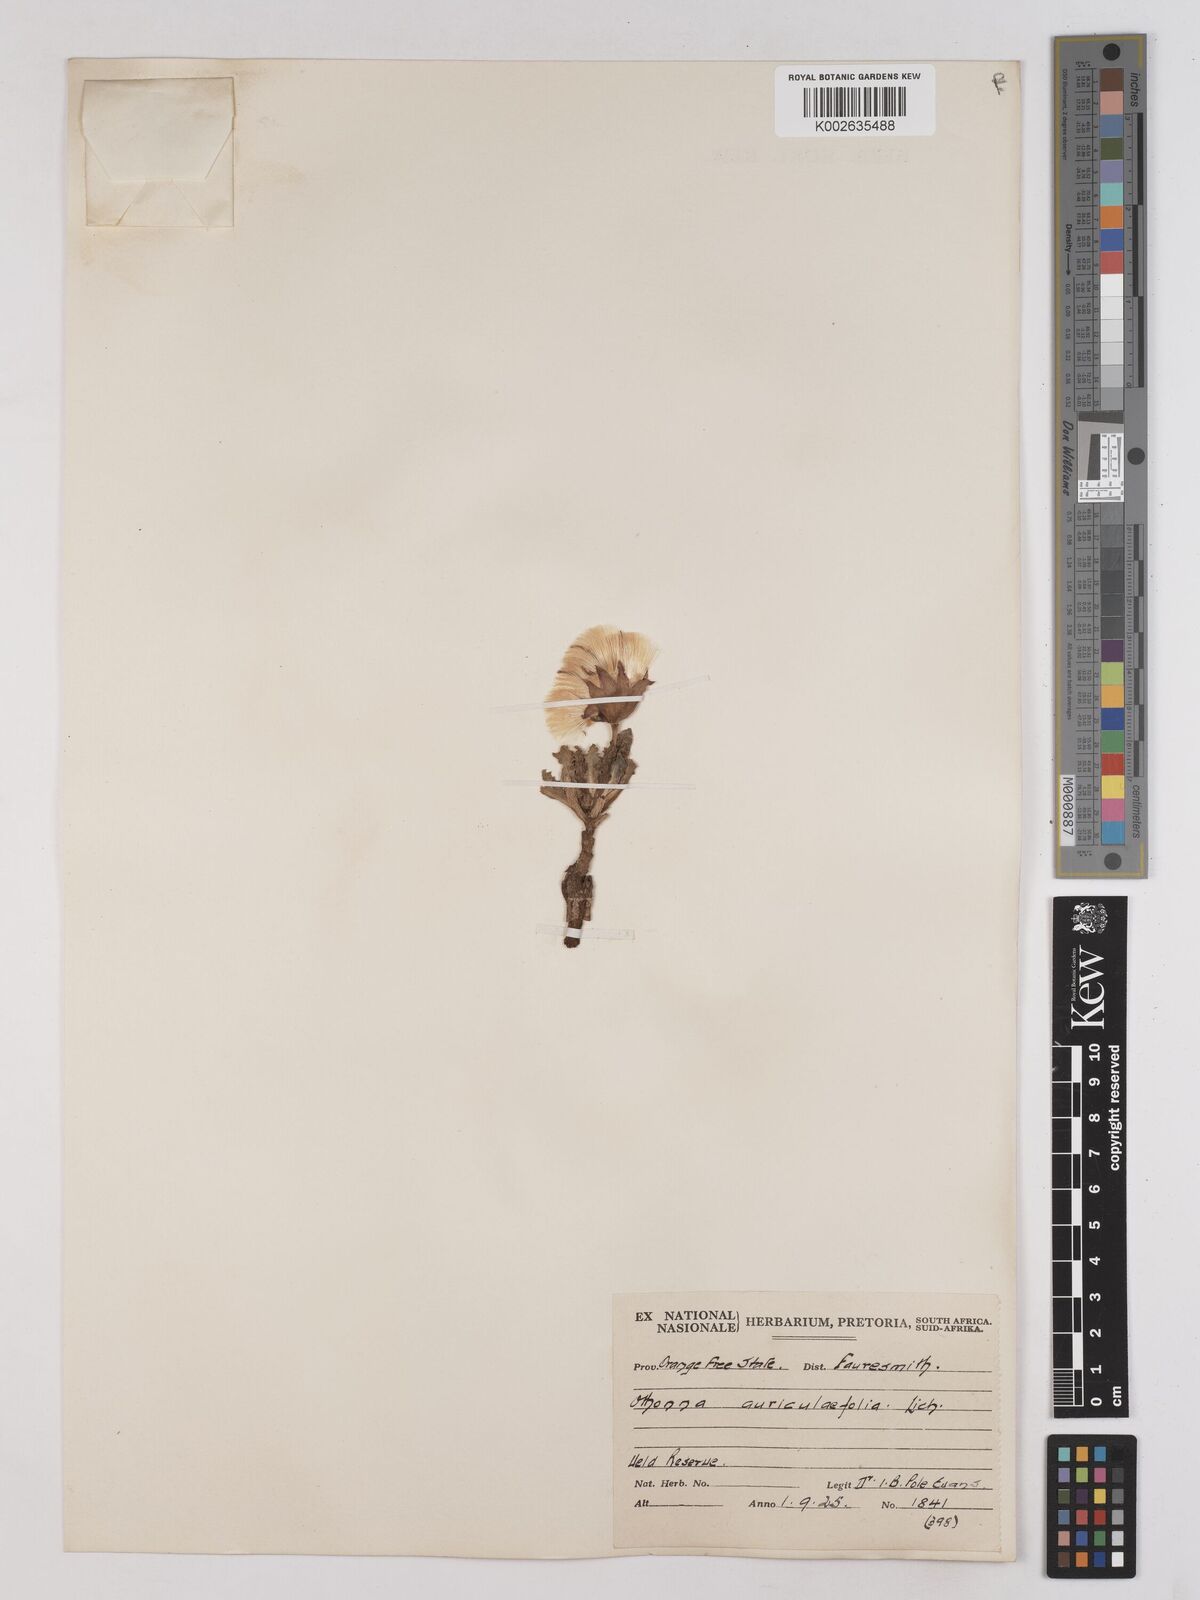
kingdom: Plantae
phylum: Tracheophyta
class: Magnoliopsida
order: Asterales
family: Asteraceae
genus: Othonna
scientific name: Othonna auriculifolia
